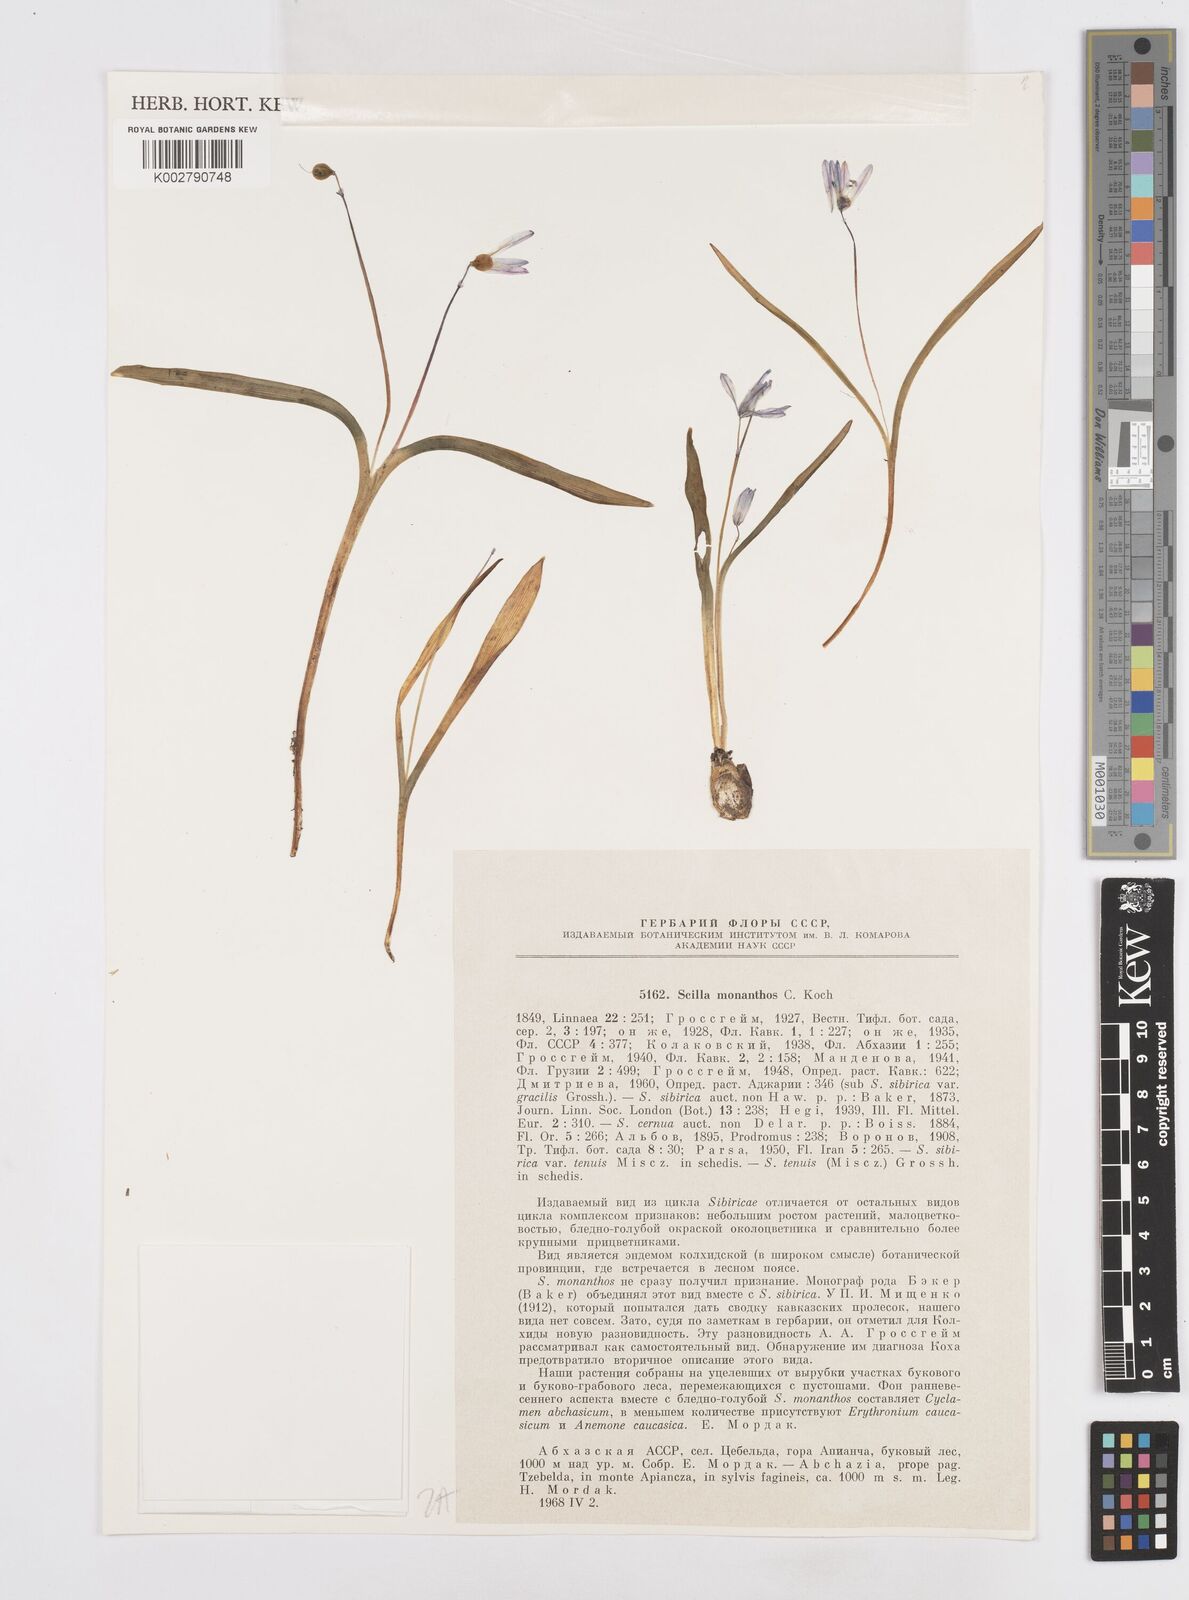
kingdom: Plantae
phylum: Tracheophyta
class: Liliopsida
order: Asparagales
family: Asparagaceae
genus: Scilla
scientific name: Scilla monanthos
